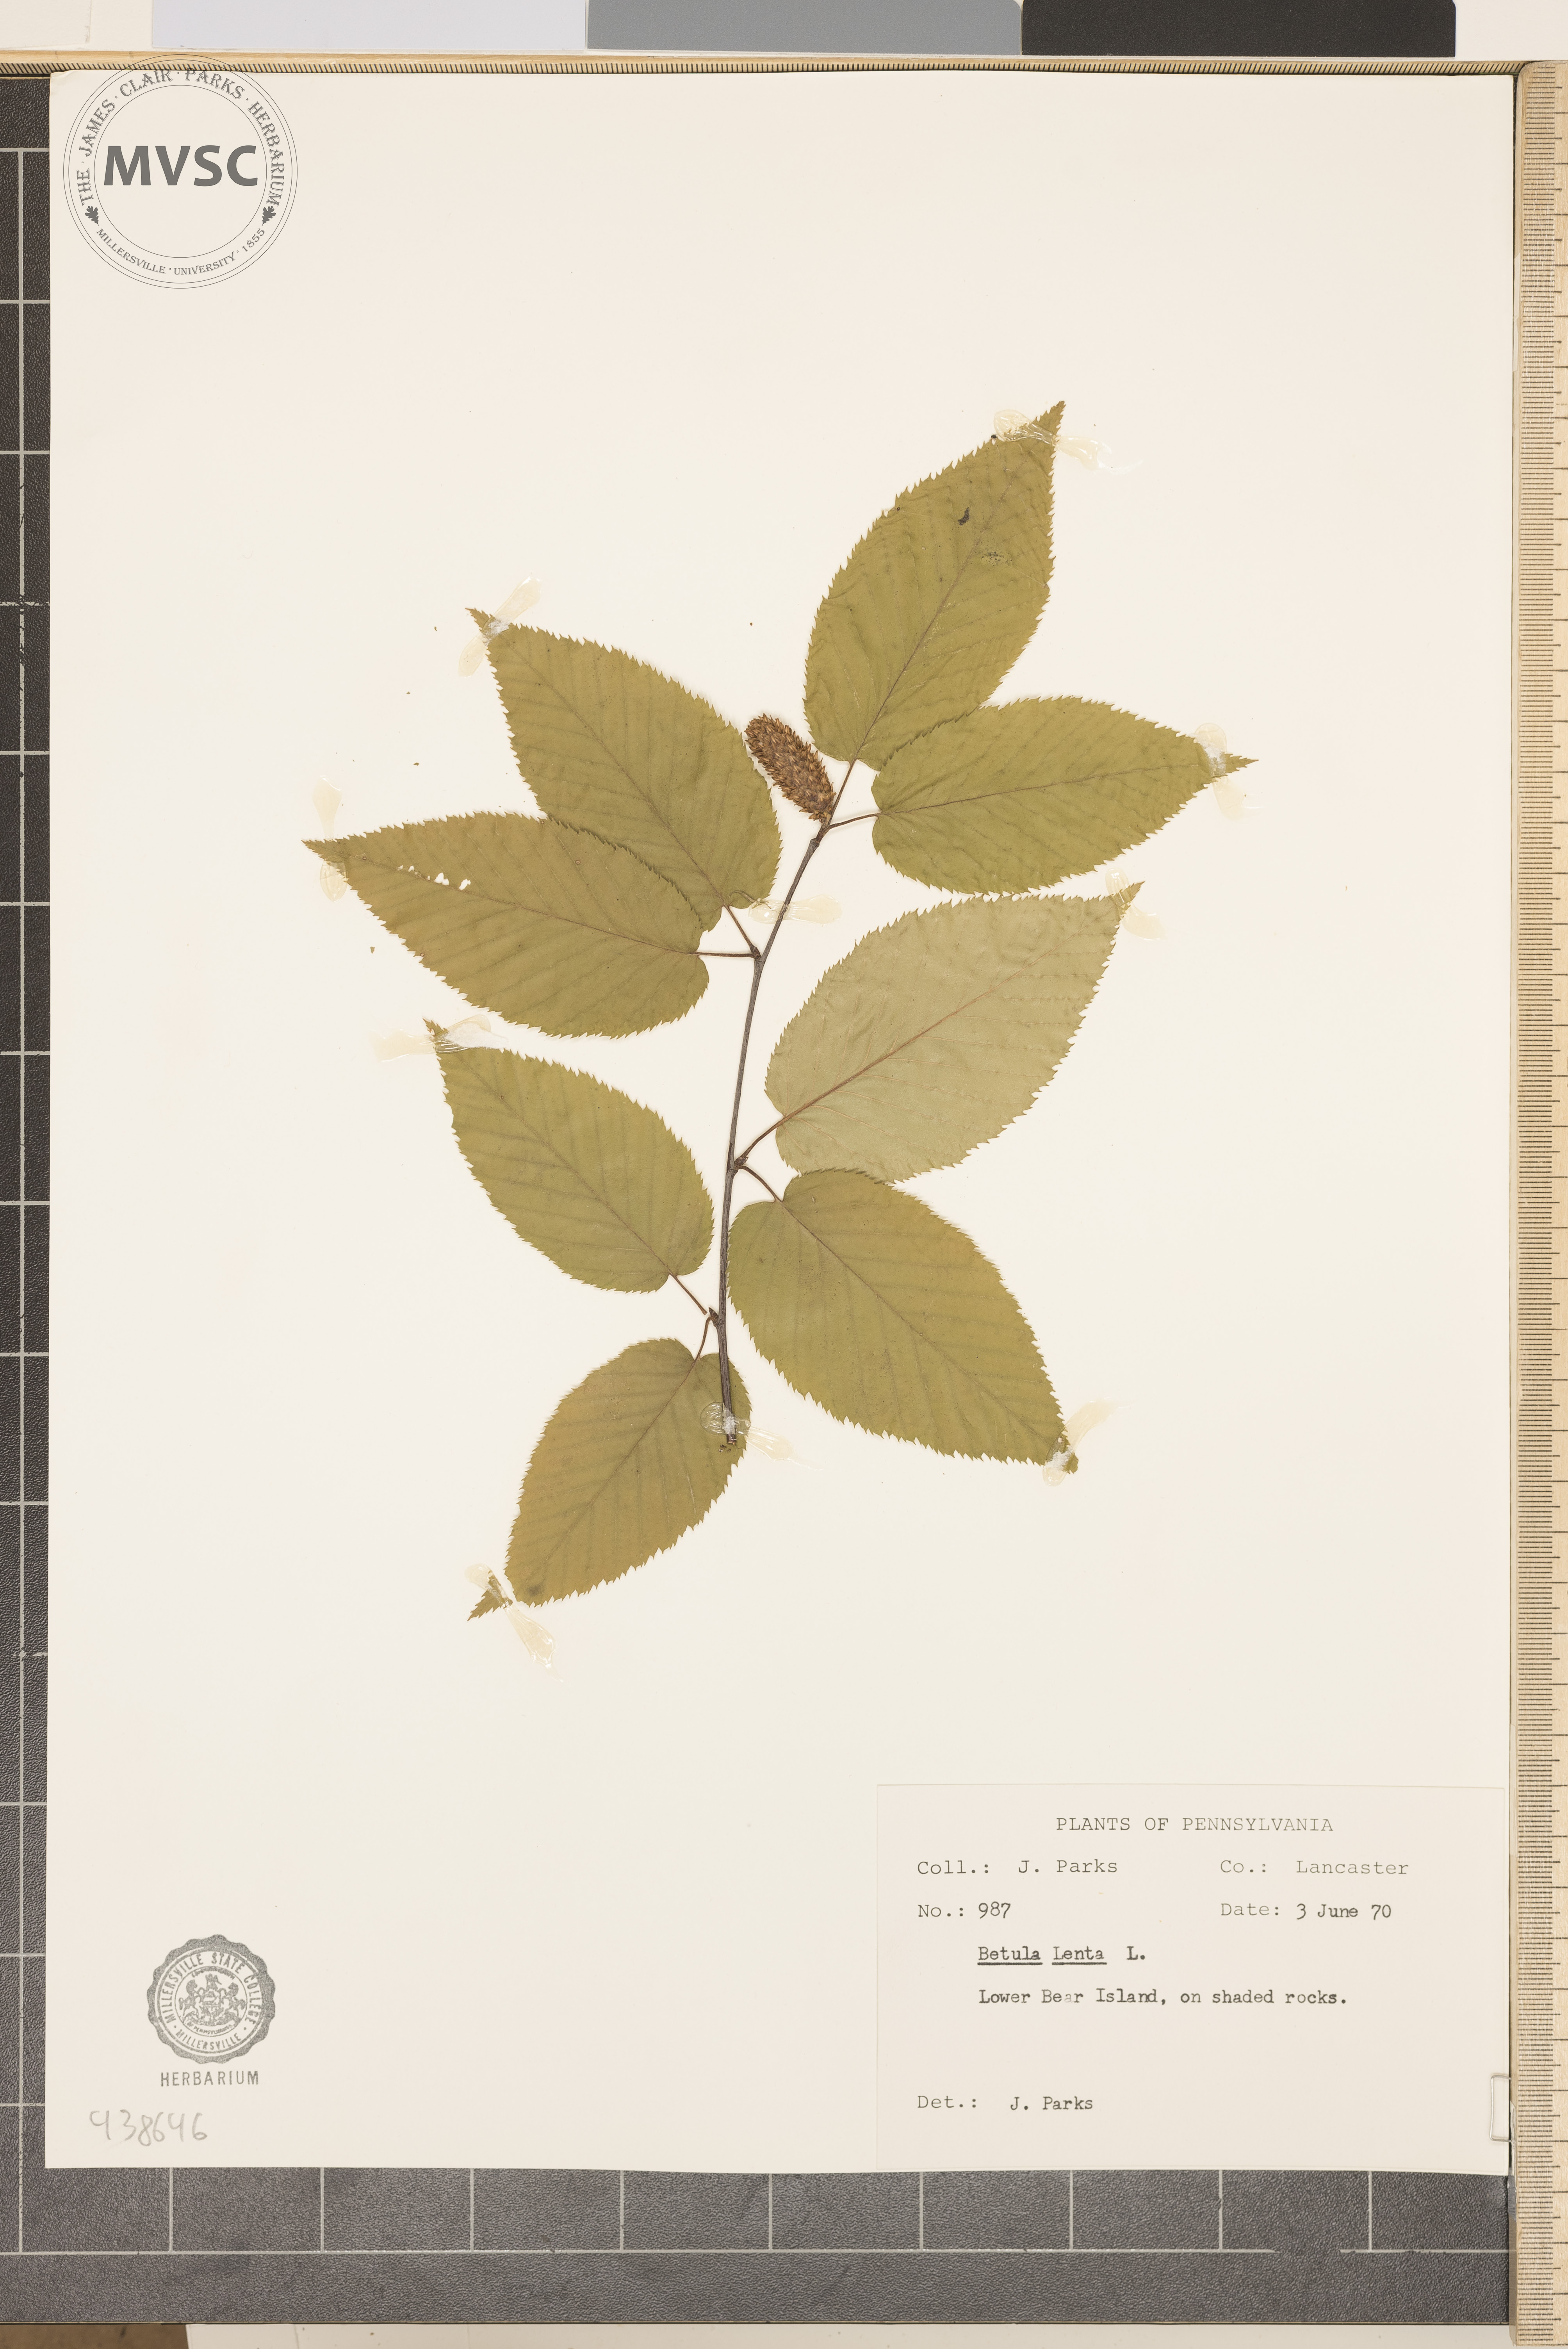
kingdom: Plantae
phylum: Tracheophyta
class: Magnoliopsida
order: Fagales
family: Betulaceae
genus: Betula
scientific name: Betula lenta
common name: Black birch
